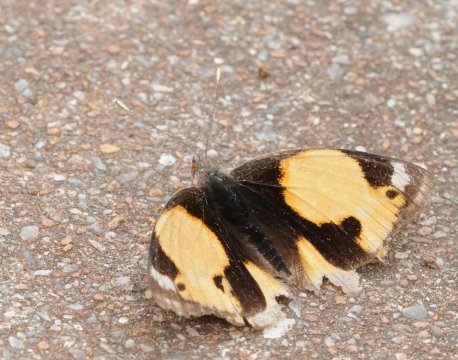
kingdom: Animalia
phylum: Arthropoda
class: Insecta
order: Lepidoptera
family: Nymphalidae
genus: Junonia
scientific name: Junonia hierta
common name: Yellow Pansy
